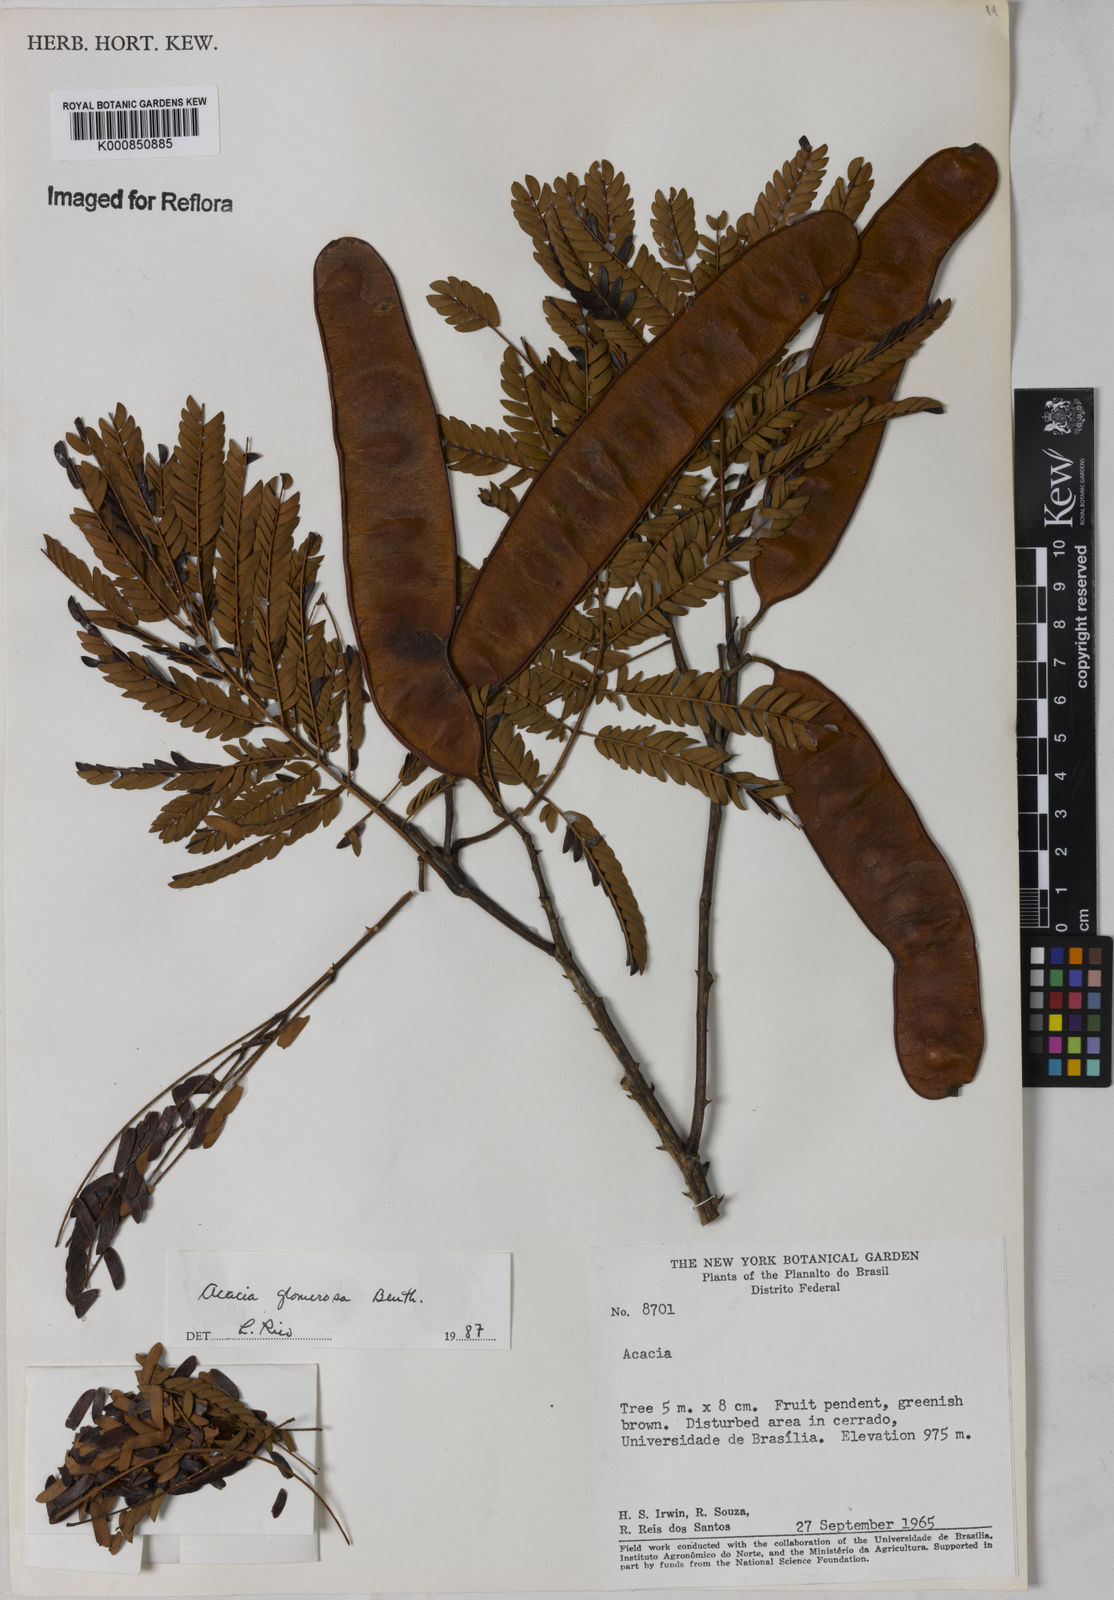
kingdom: Plantae
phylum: Tracheophyta
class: Magnoliopsida
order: Fabales
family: Fabaceae
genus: Senegalia
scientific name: Senegalia polyphylla
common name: White-tamarind
